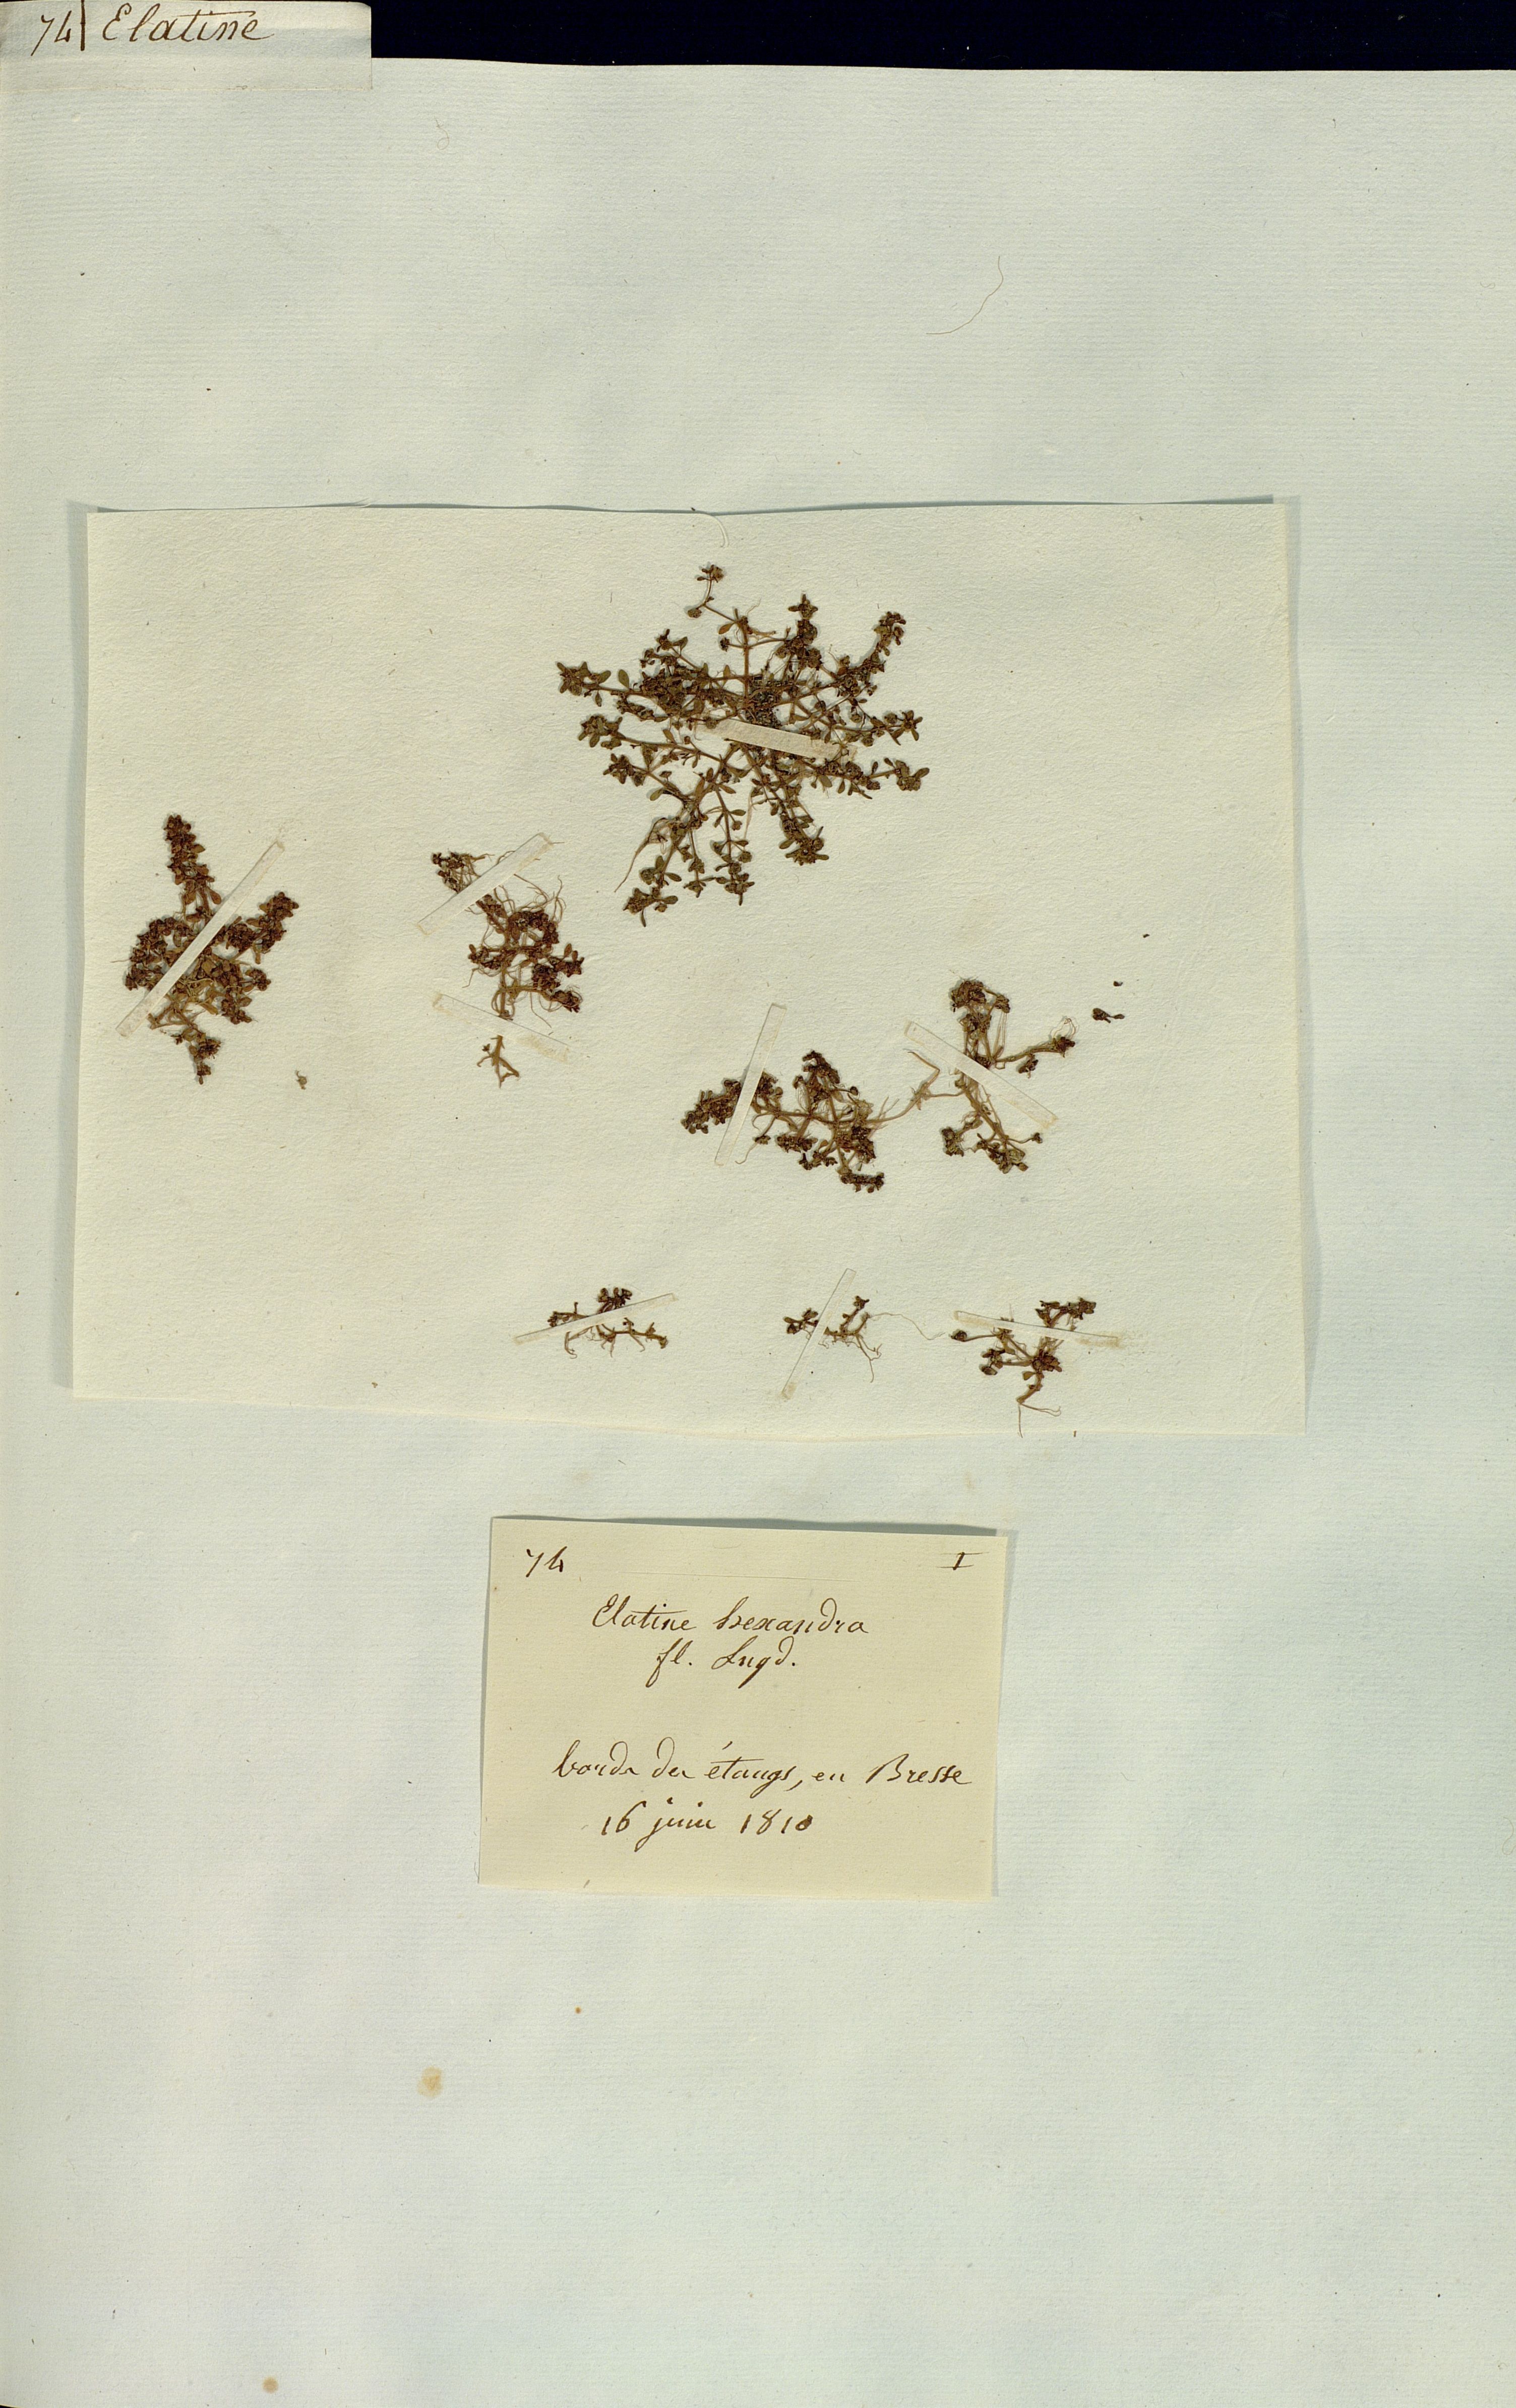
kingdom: Plantae
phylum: Tracheophyta
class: Magnoliopsida
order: Malpighiales
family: Elatinaceae
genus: Elatine
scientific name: Elatine hexandra
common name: Six-stamened waterwort
